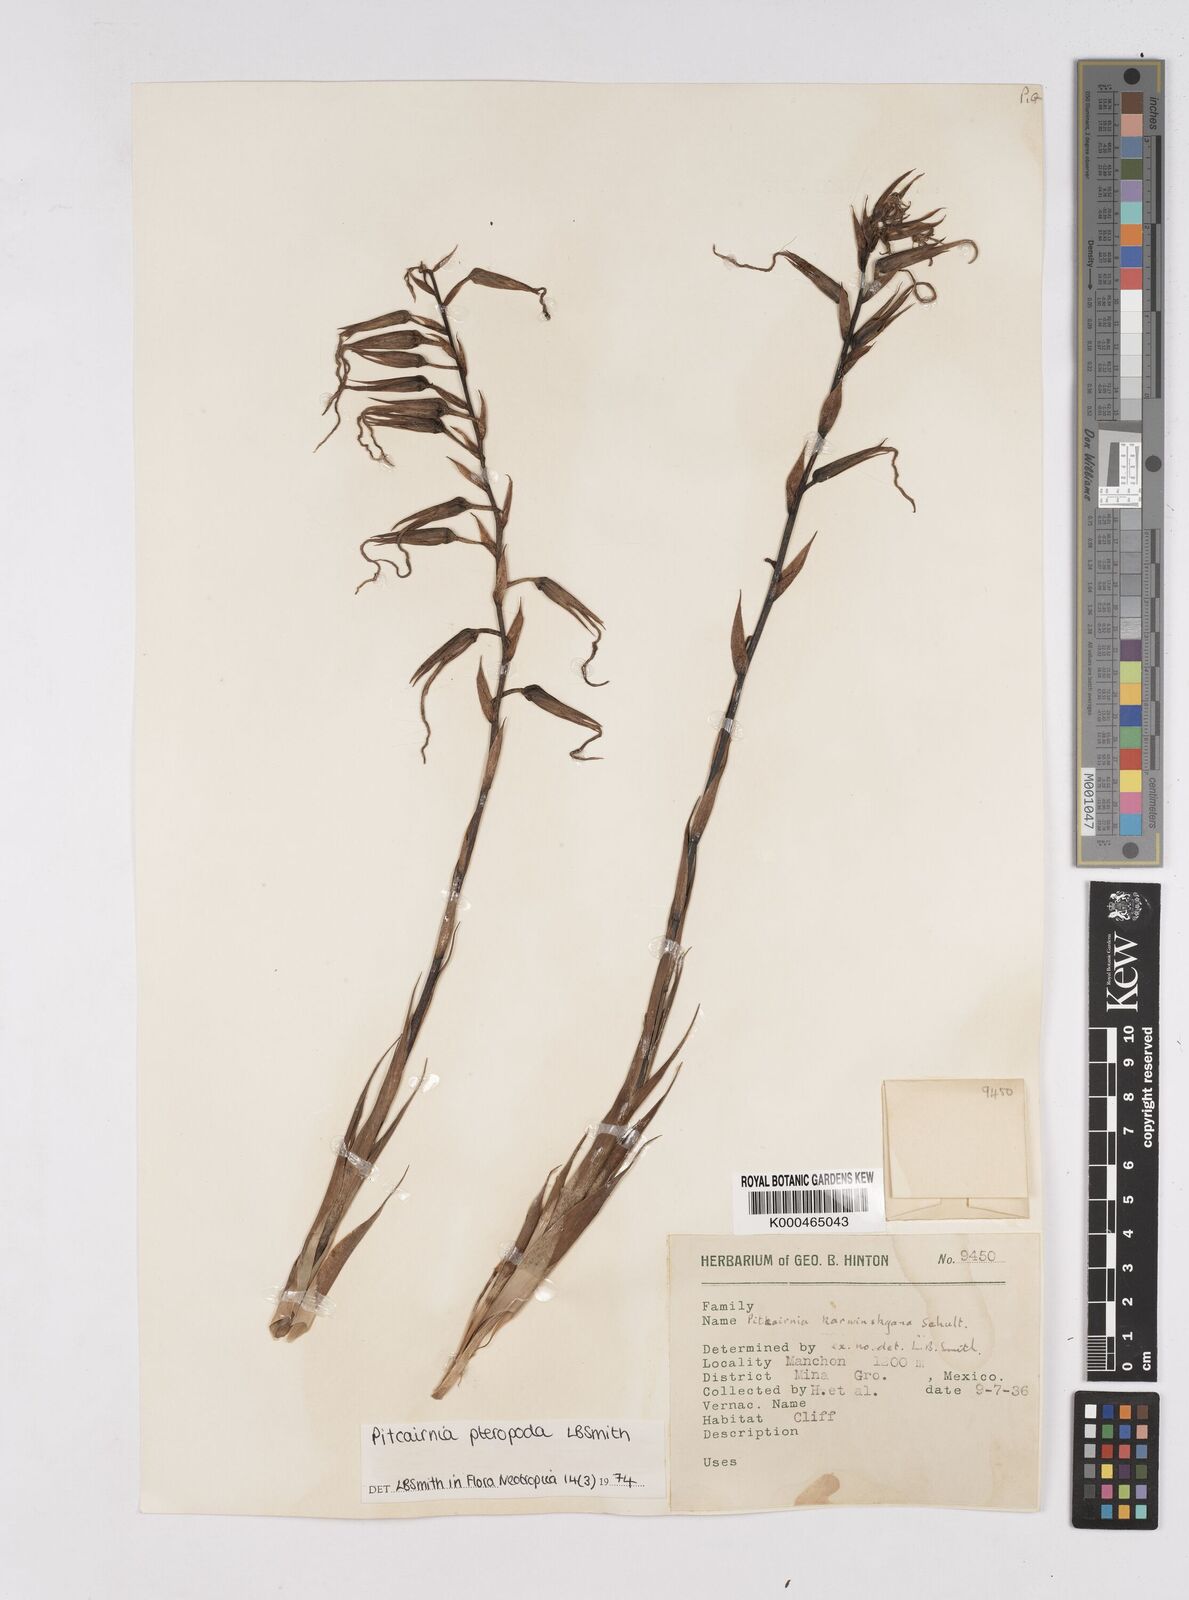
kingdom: Plantae
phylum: Tracheophyta
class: Liliopsida
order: Poales
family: Bromeliaceae
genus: Pitcairnia
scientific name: Pitcairnia pteropoda
